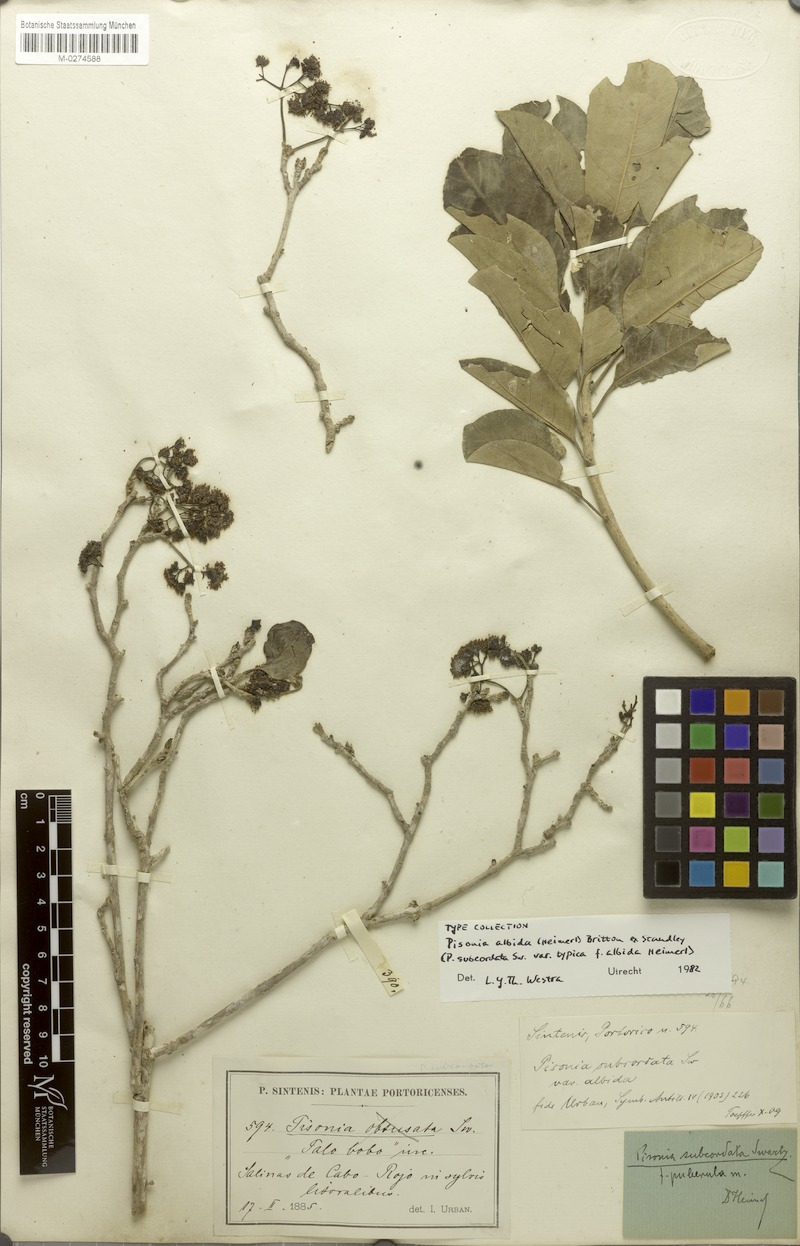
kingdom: Plantae
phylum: Tracheophyta
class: Magnoliopsida
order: Caryophyllales
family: Nyctaginaceae
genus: Pisonia
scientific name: Pisonia albida
